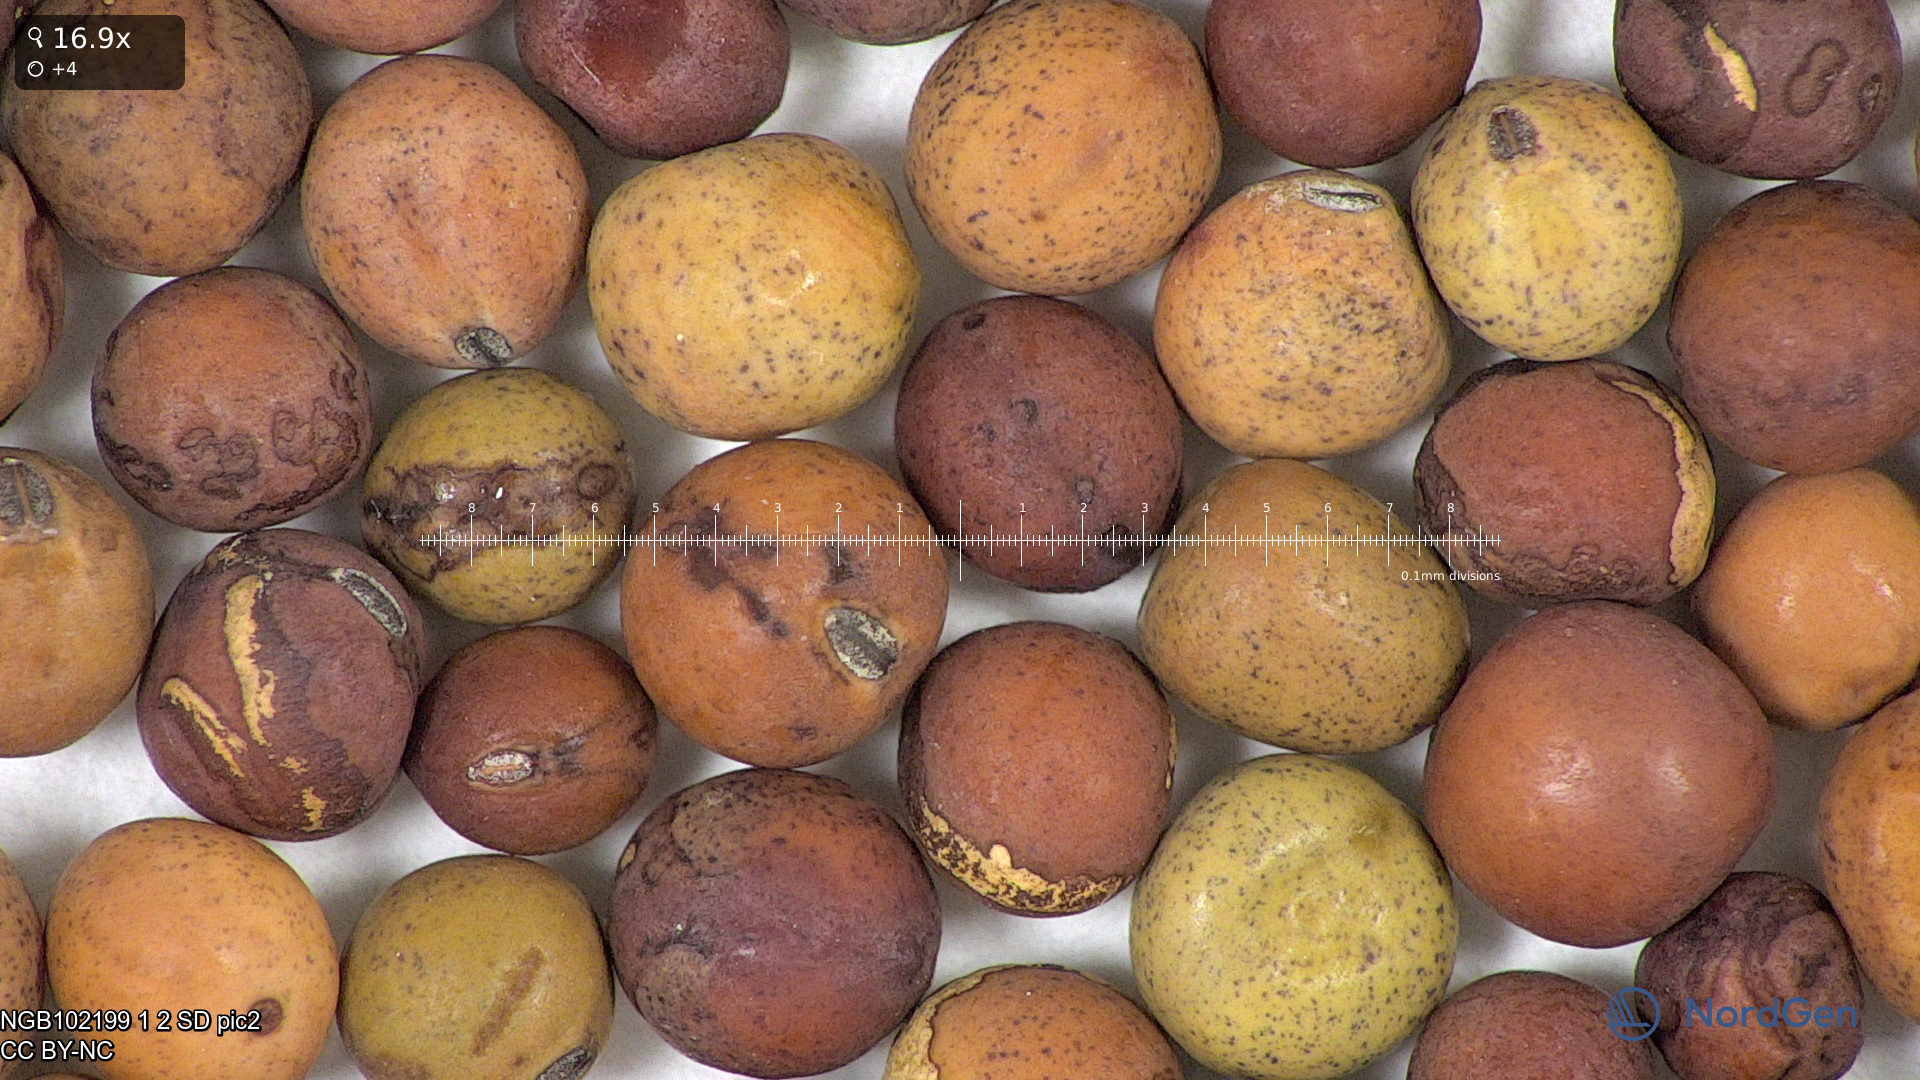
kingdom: Plantae
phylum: Tracheophyta
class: Magnoliopsida
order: Fabales
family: Fabaceae
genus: Lathyrus
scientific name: Lathyrus oleraceus
